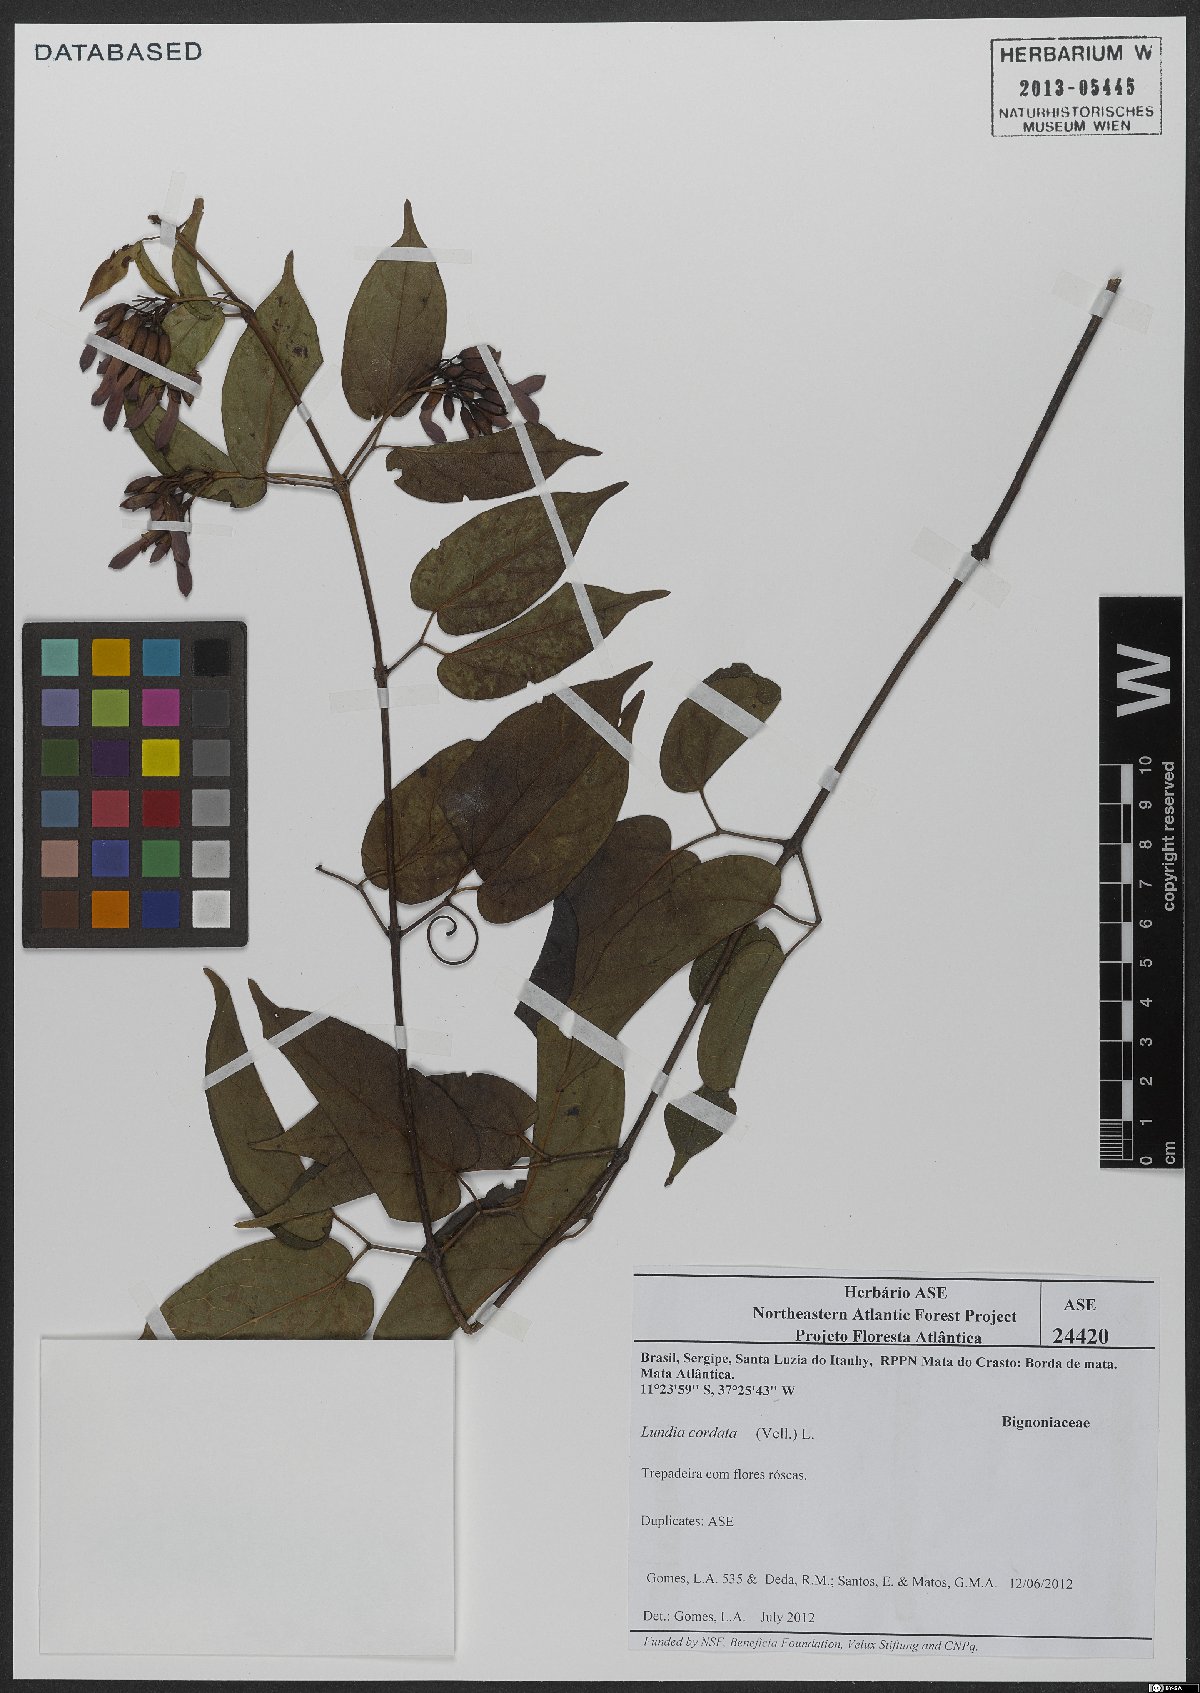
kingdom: Plantae
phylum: Tracheophyta
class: Magnoliopsida
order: Lamiales
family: Bignoniaceae
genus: Lundia
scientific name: Lundia corymbifera
